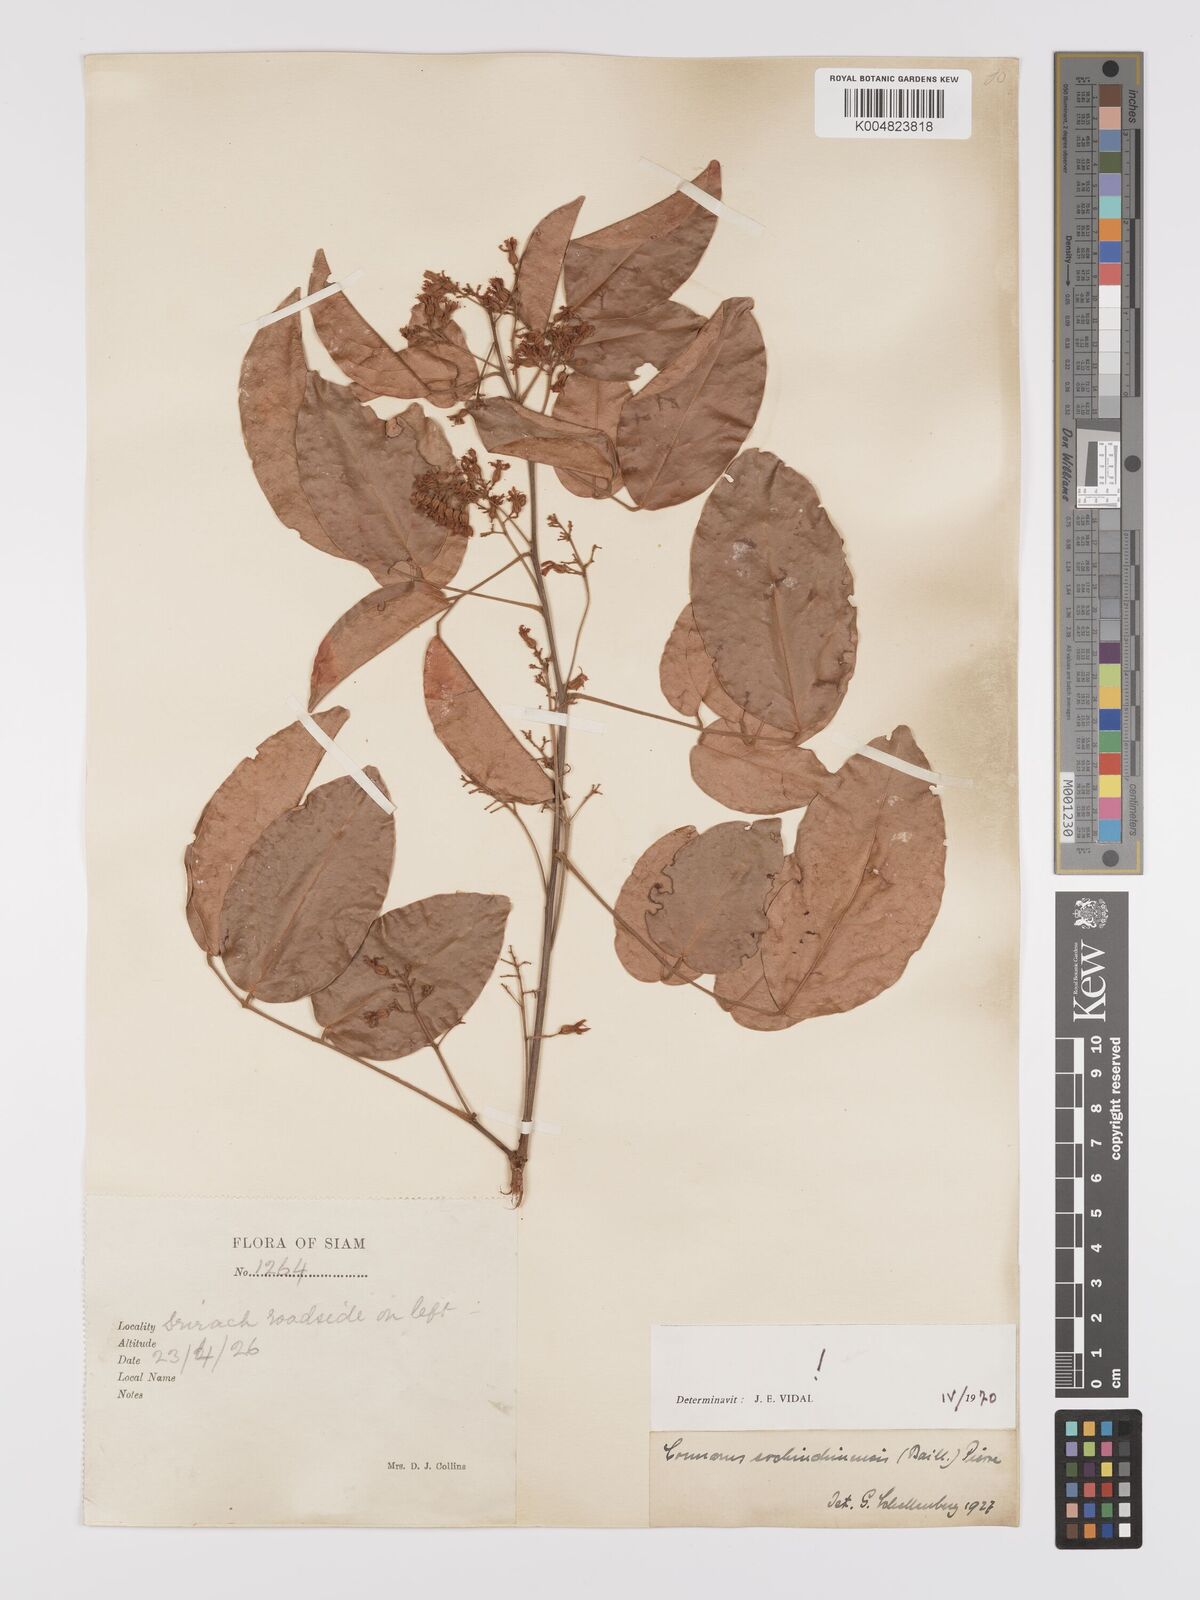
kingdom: Plantae
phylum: Tracheophyta
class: Magnoliopsida
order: Oxalidales
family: Connaraceae
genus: Connarus
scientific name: Connarus cochinchinensis
